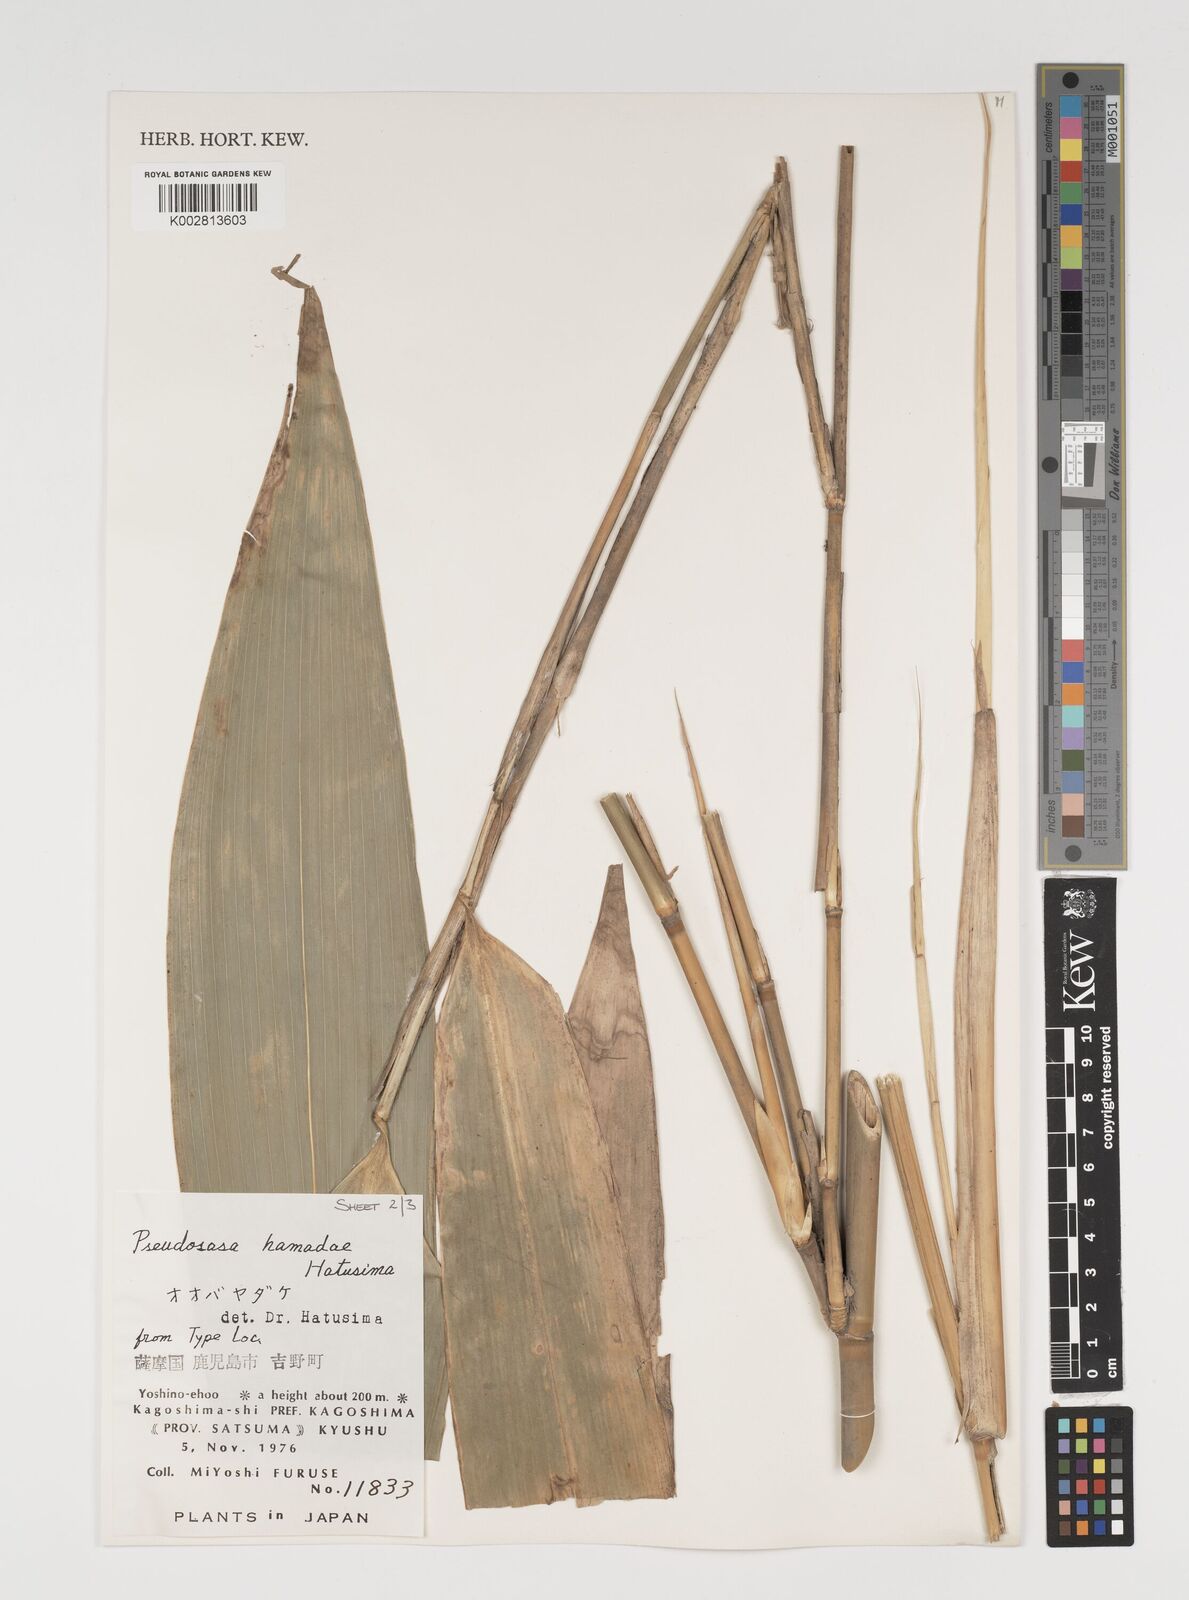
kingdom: Plantae
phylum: Tracheophyta
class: Liliopsida
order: Poales
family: Poaceae
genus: Indocalamus
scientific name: Indocalamus tessellatus
